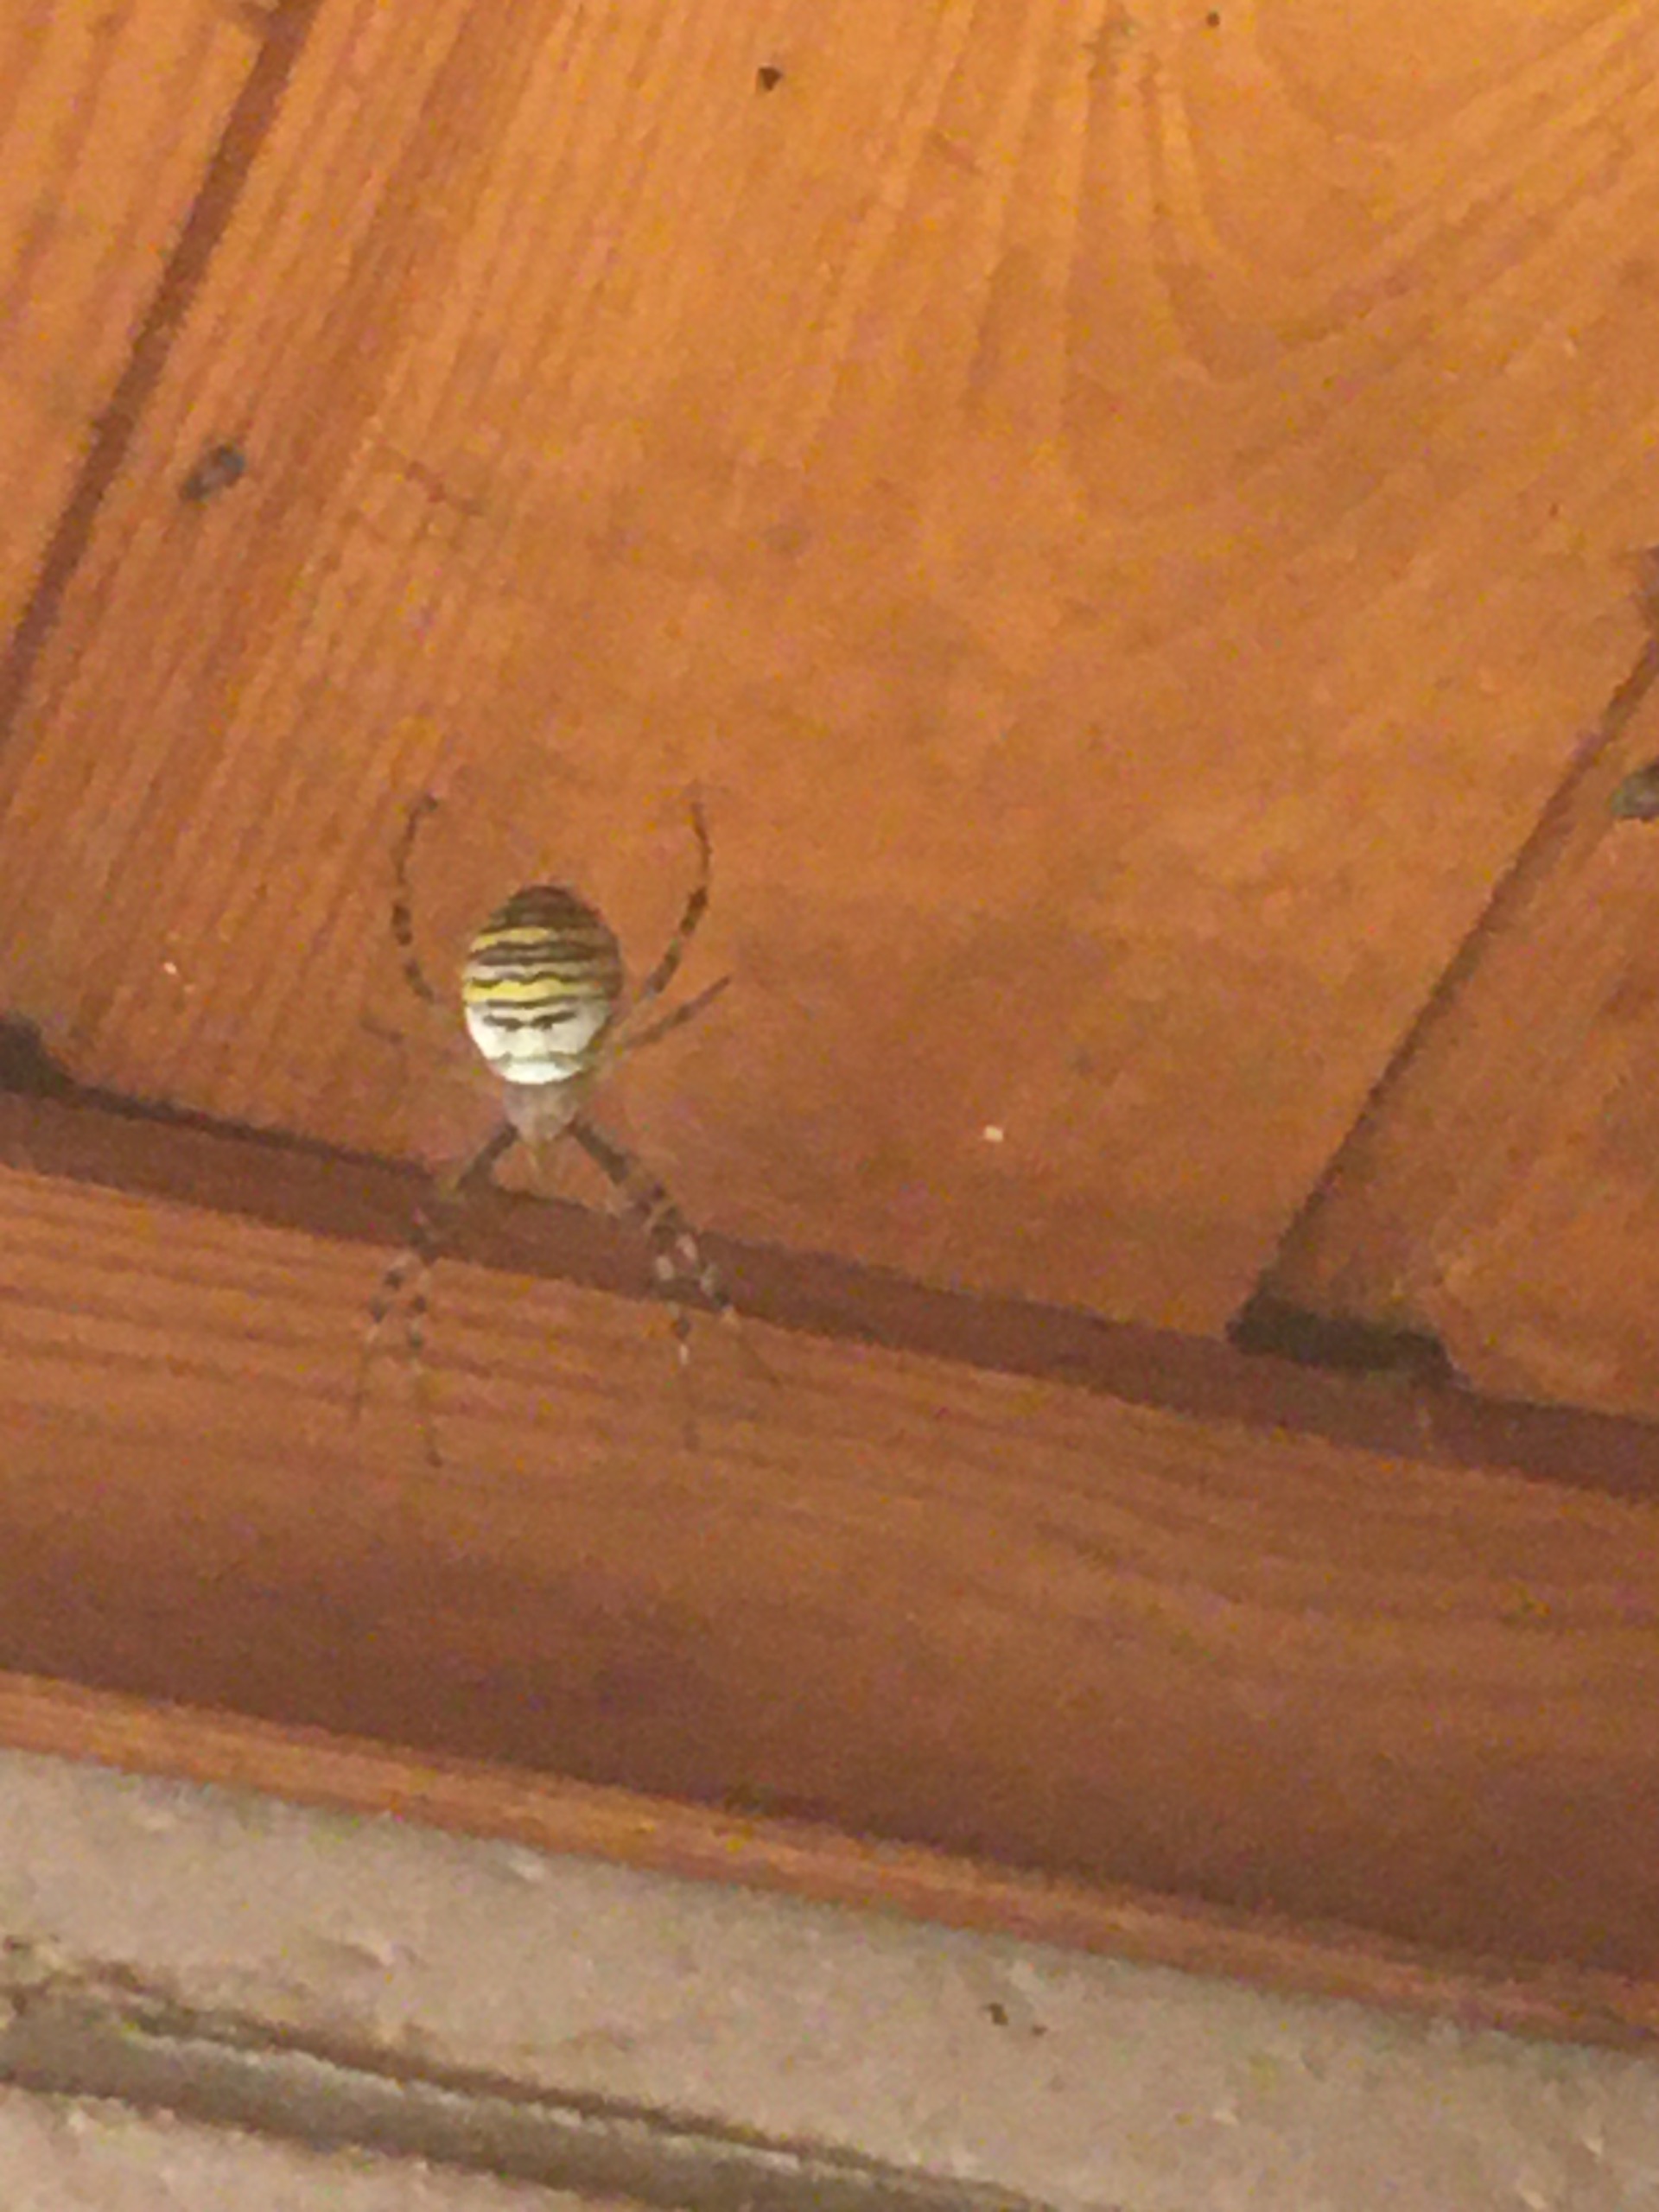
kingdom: Animalia
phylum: Arthropoda
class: Arachnida
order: Araneae
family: Araneidae
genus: Argiope
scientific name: Argiope bruennichi
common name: Hvepseedderkop
